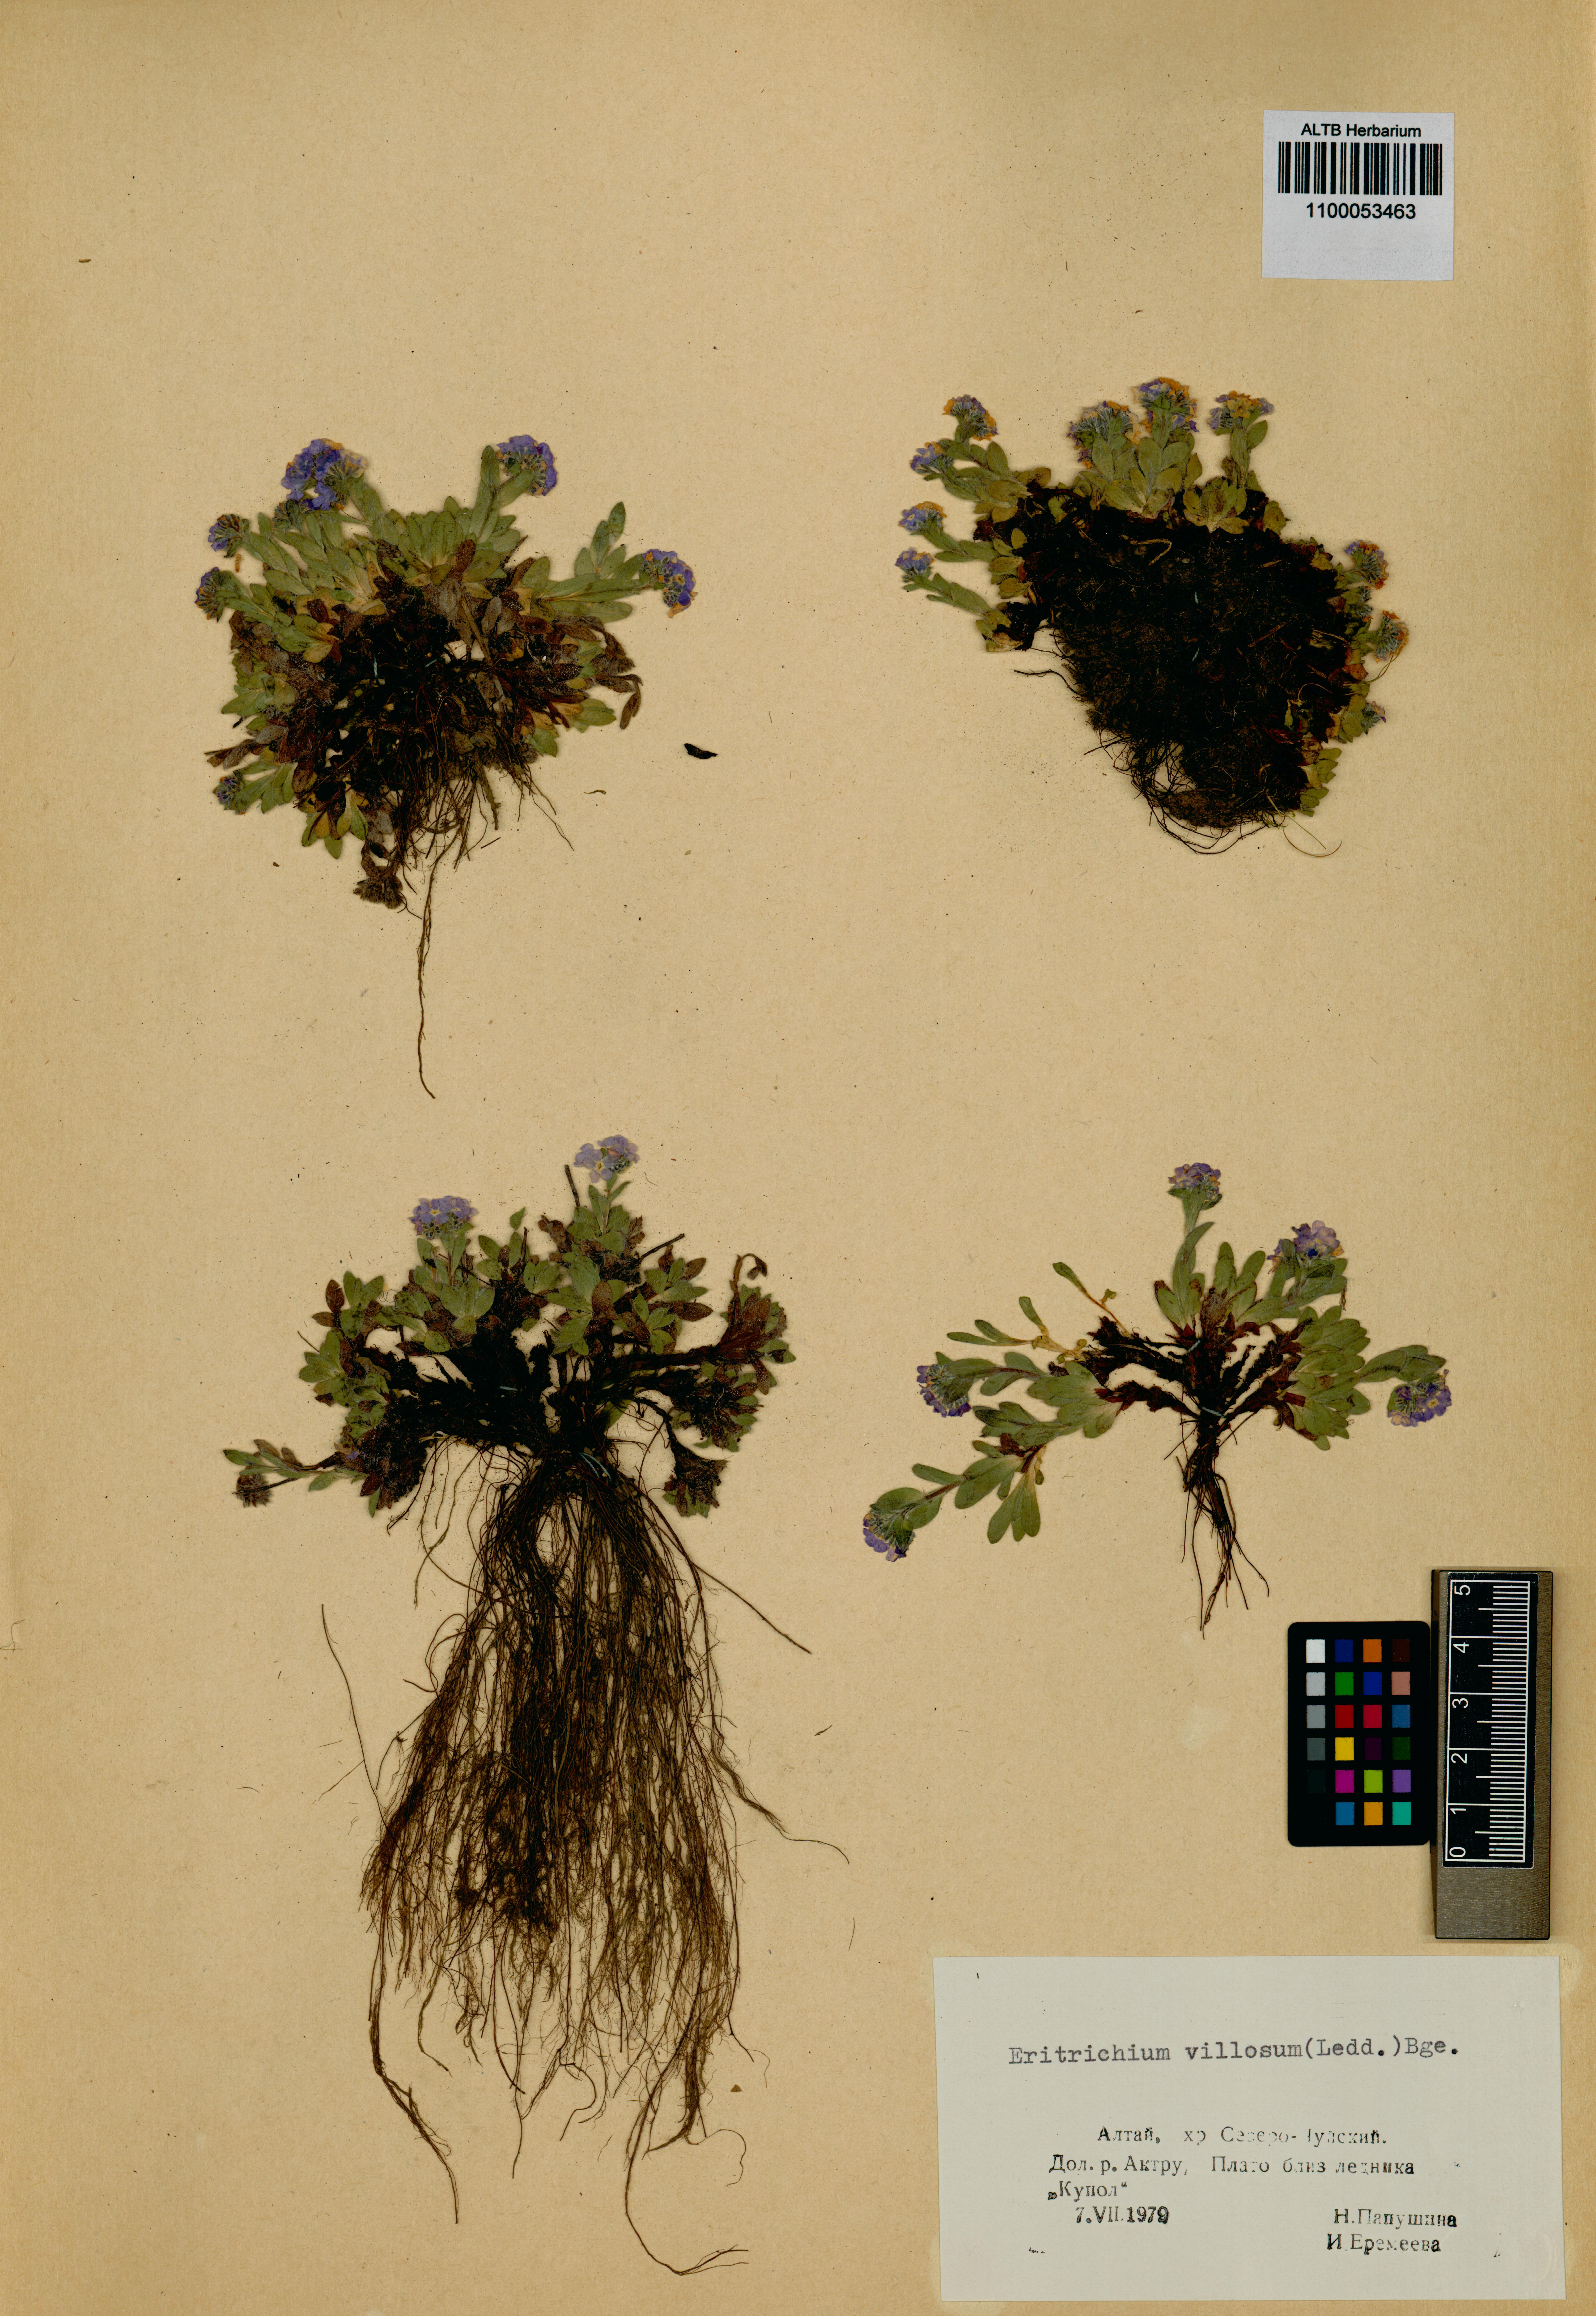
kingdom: Plantae
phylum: Tracheophyta
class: Magnoliopsida
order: Boraginales
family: Boraginaceae
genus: Eritrichium
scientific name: Eritrichium villosum
